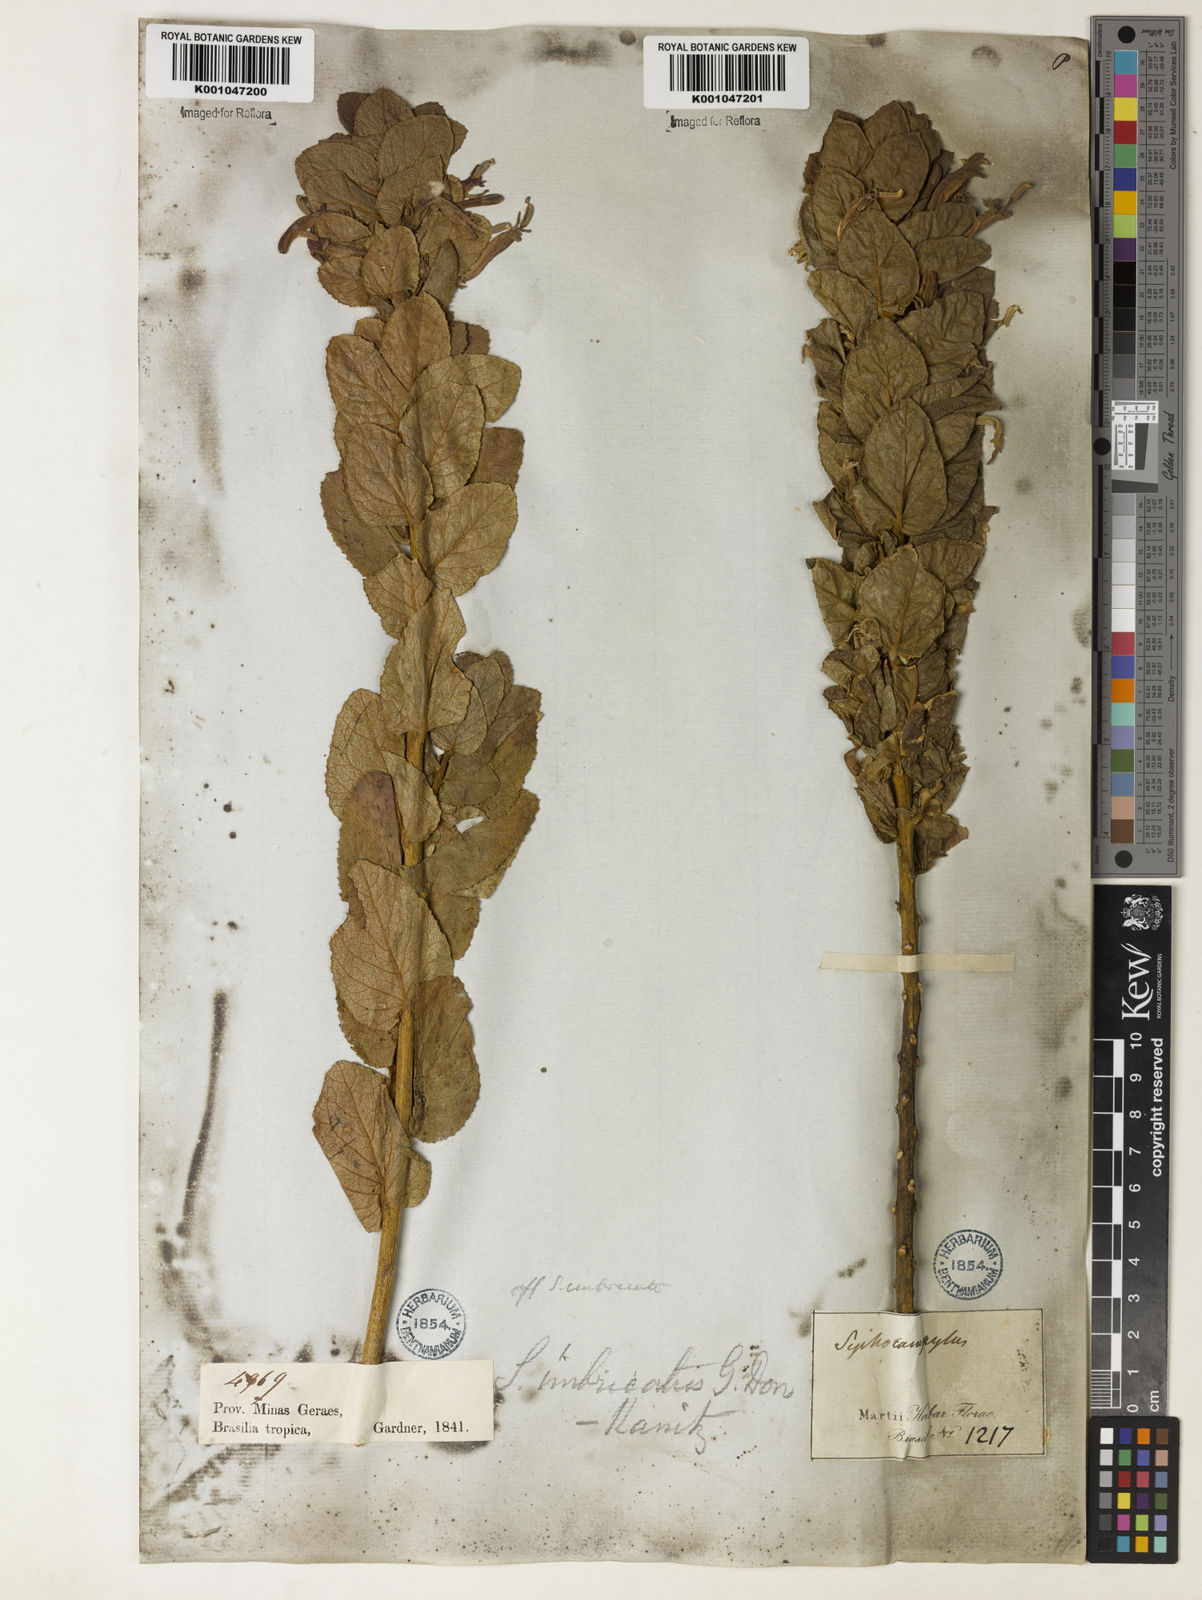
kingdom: Plantae
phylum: Tracheophyta
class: Magnoliopsida
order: Asterales
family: Campanulaceae
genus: Siphocampylus
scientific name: Siphocampylus imbricatus
